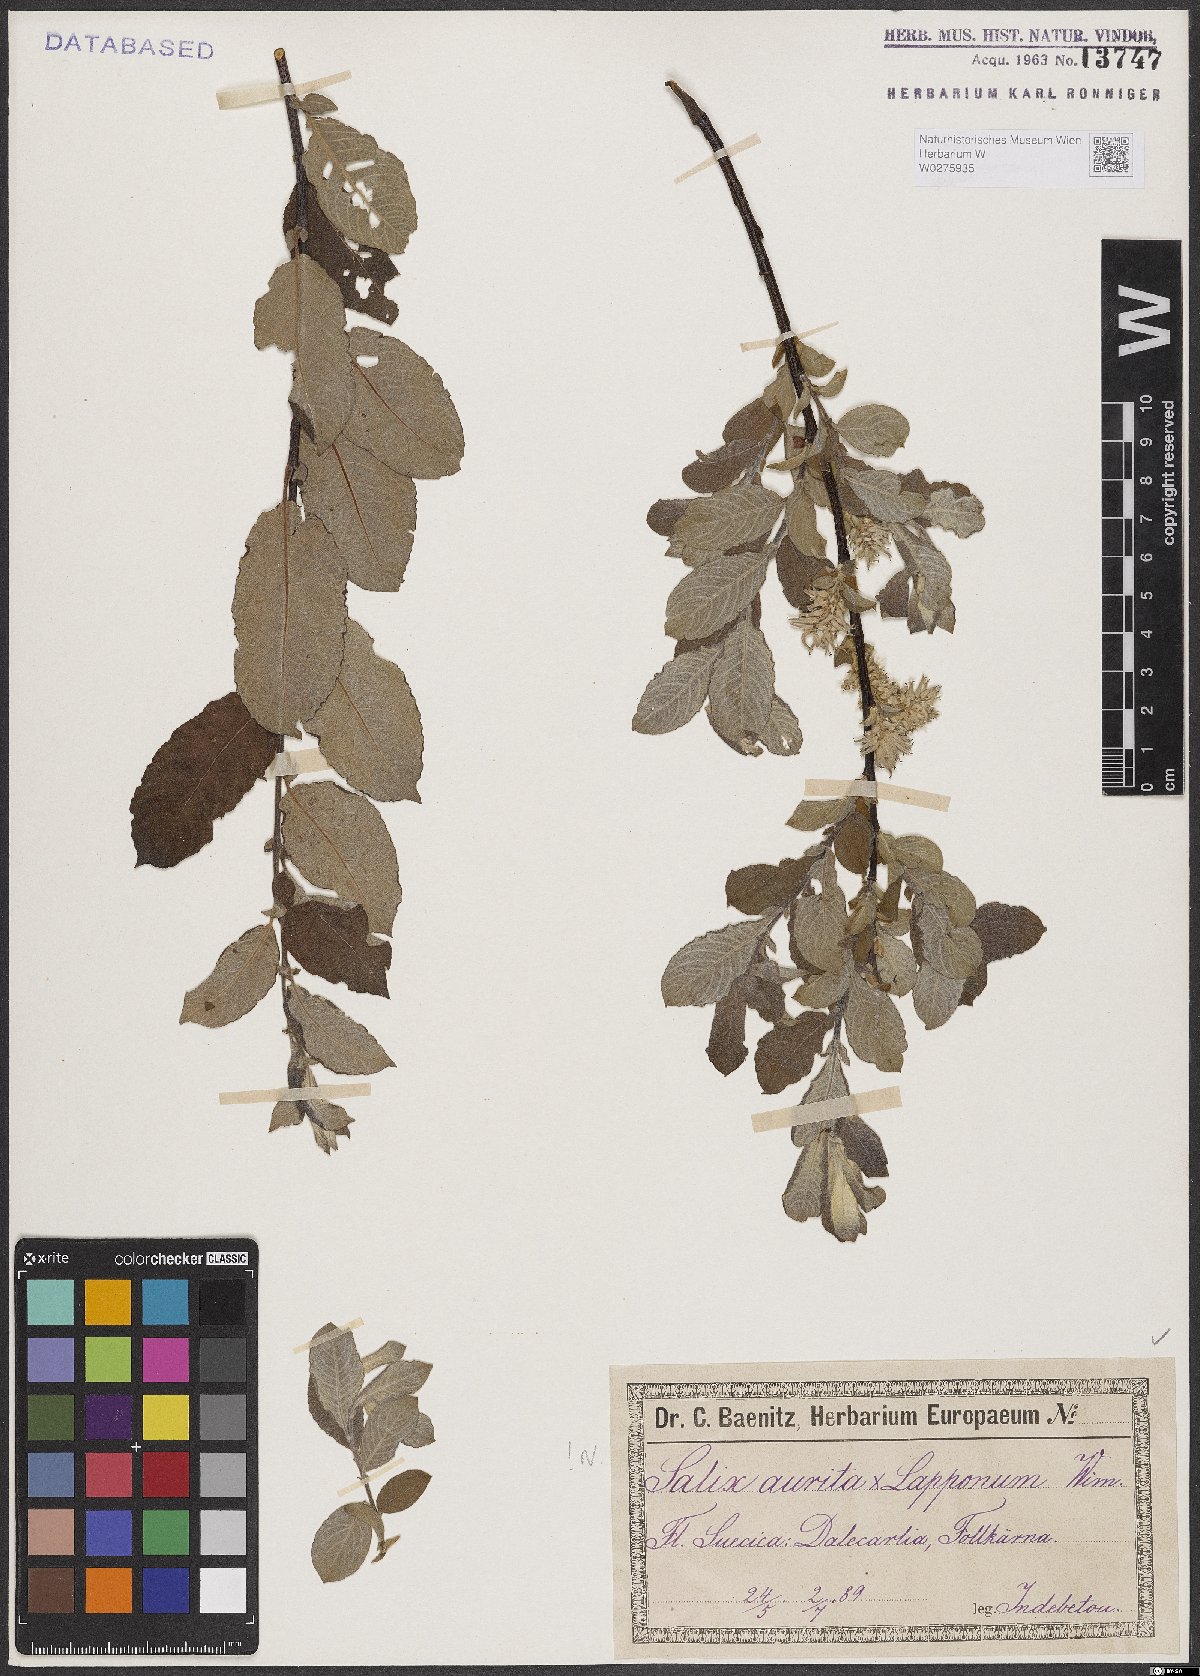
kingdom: Plantae
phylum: Tracheophyta
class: Magnoliopsida
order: Malpighiales
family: Salicaceae
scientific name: Salicaceae
